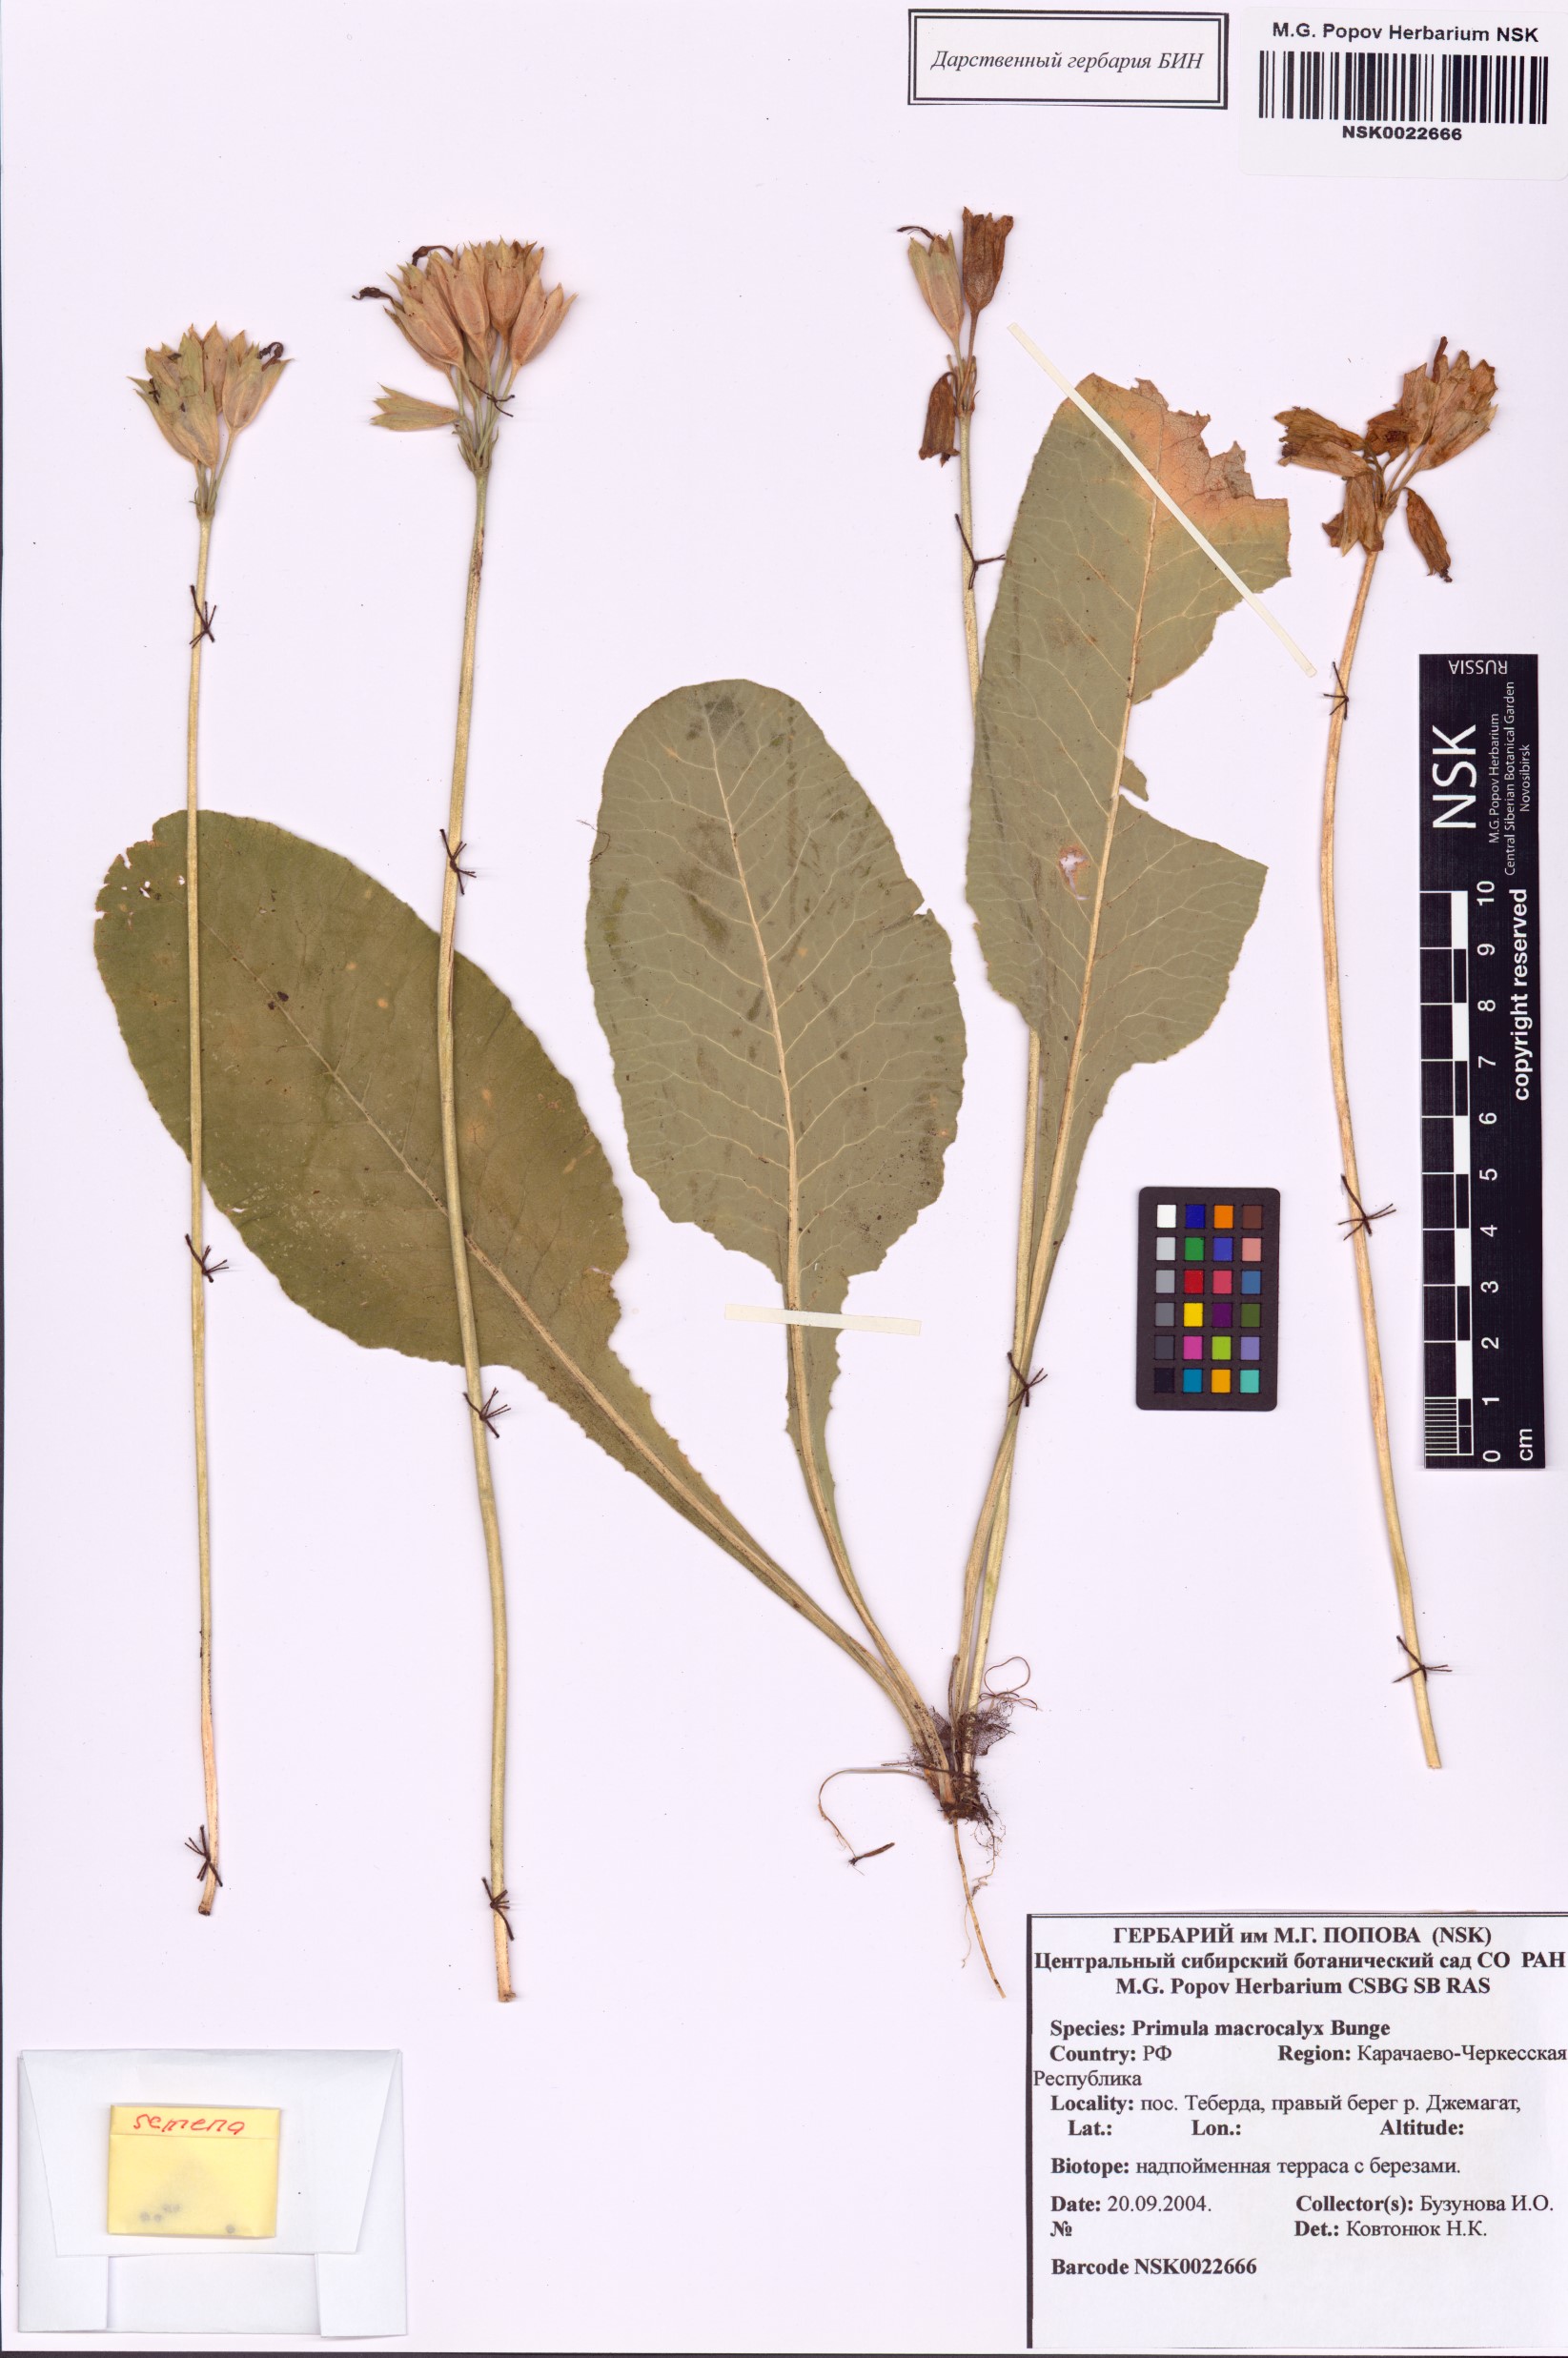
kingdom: Plantae
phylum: Tracheophyta
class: Magnoliopsida
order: Ericales
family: Primulaceae
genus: Primula
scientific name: Primula veris
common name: Cowslip
